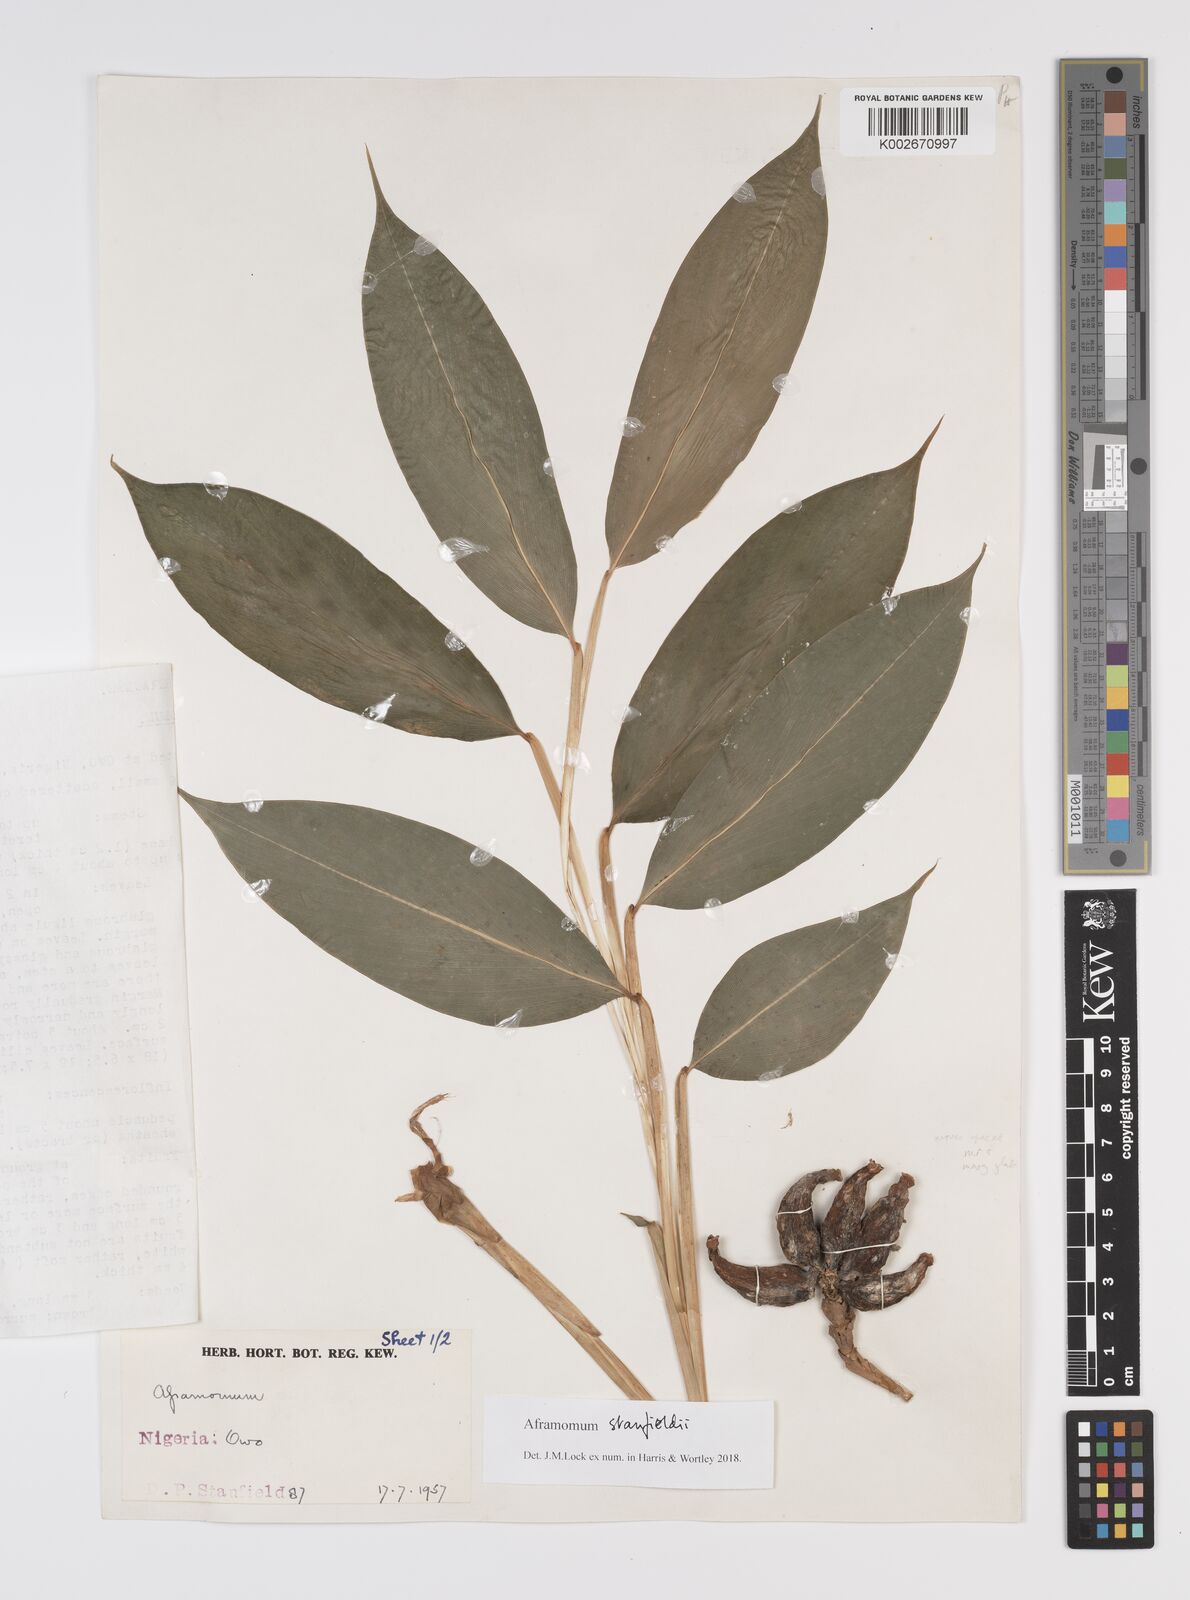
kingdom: Plantae
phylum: Tracheophyta
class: Liliopsida
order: Zingiberales
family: Zingiberaceae
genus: Aframomum
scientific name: Aframomum stanfieldii
